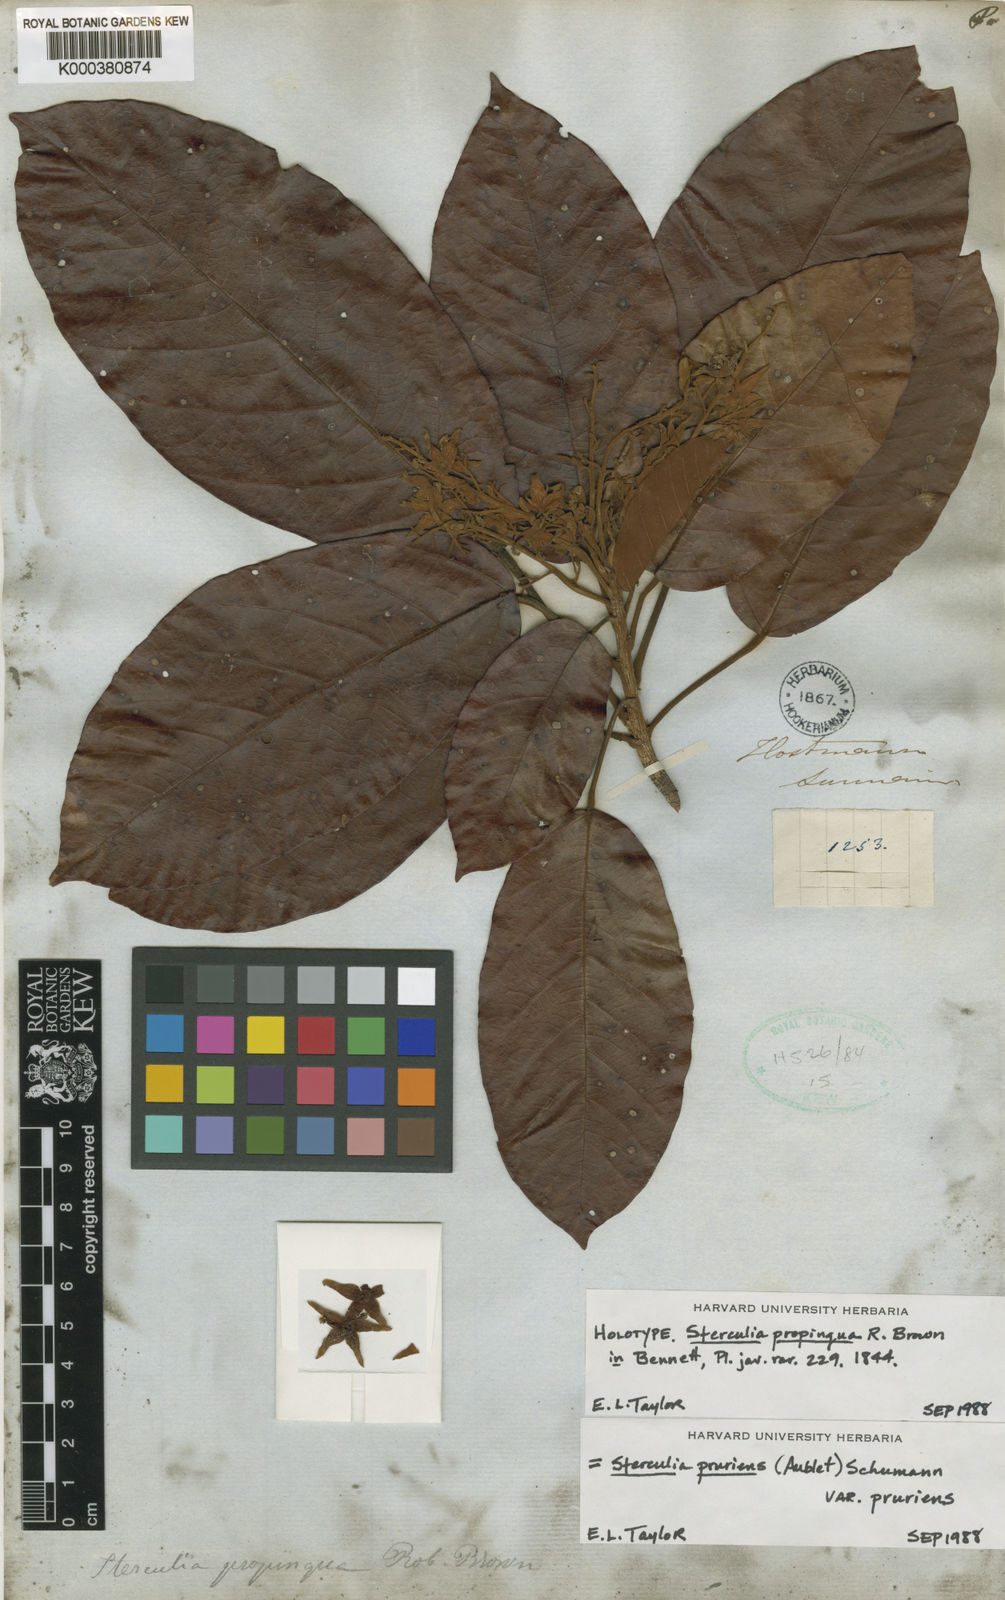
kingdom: Plantae
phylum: Tracheophyta
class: Magnoliopsida
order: Malvales
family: Malvaceae
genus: Sterculia
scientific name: Sterculia pruriens
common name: Grand mahot
